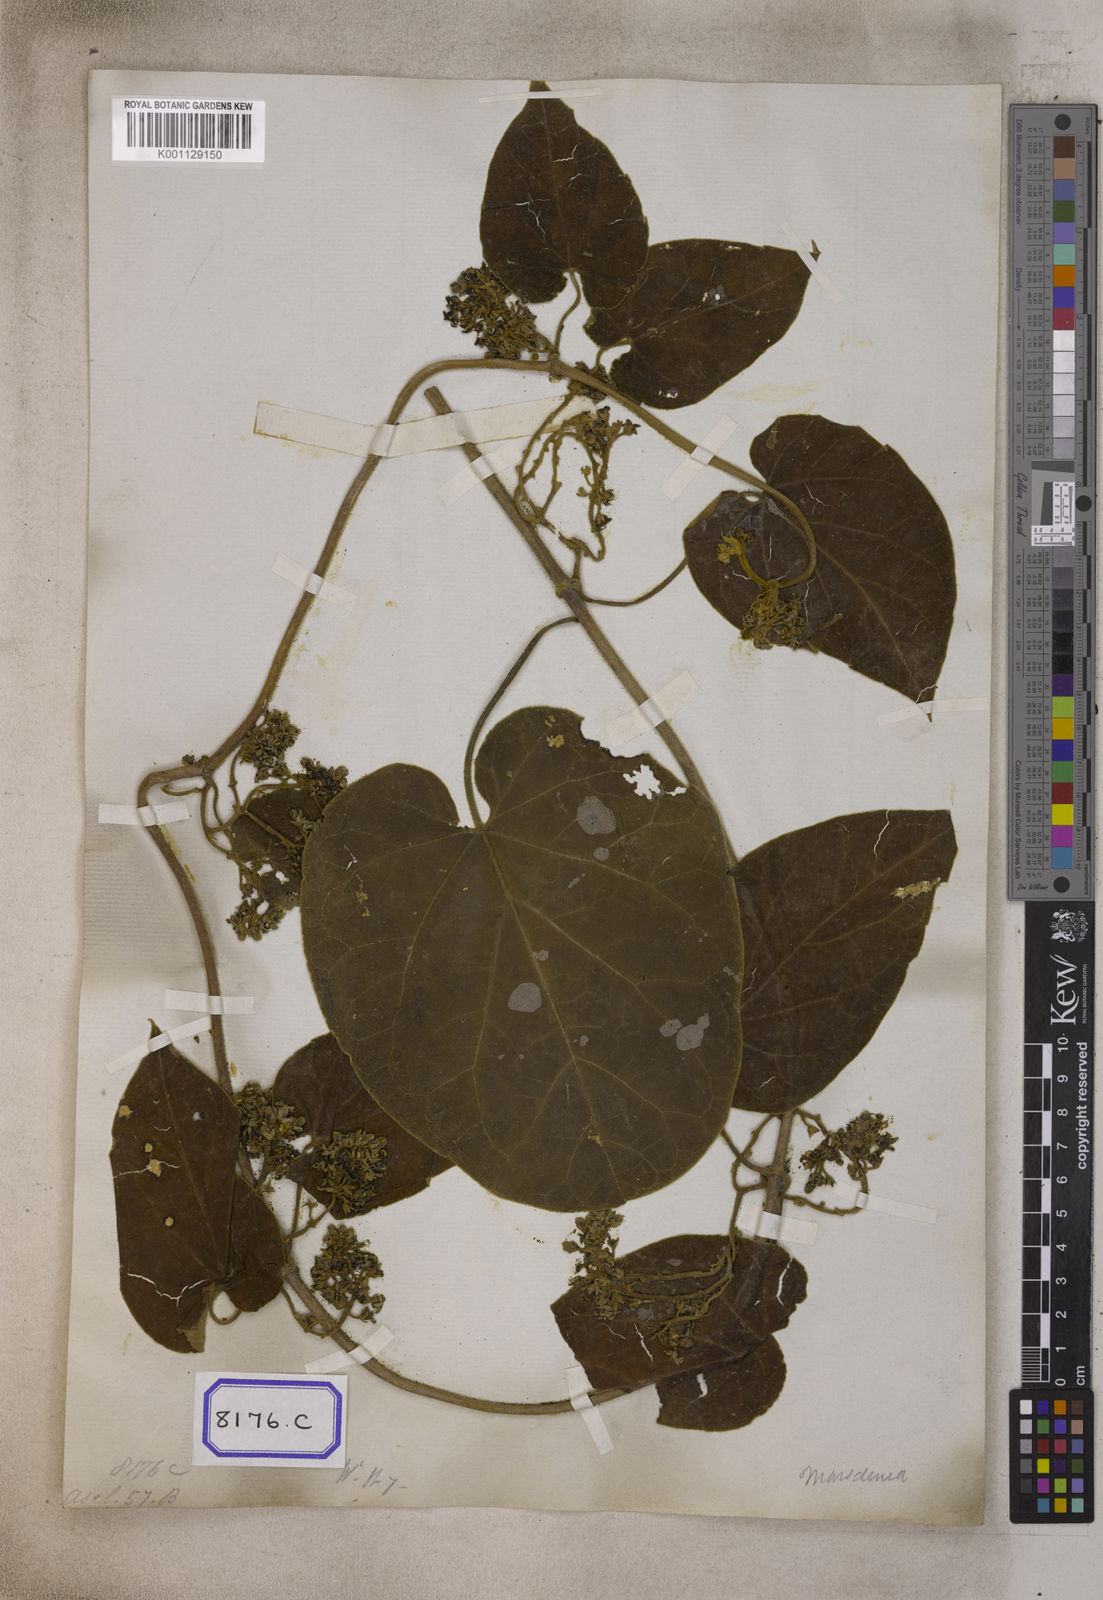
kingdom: Plantae
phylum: Tracheophyta
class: Magnoliopsida
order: Gentianales
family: Apocynaceae
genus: Marsdenia
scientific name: Marsdenia
